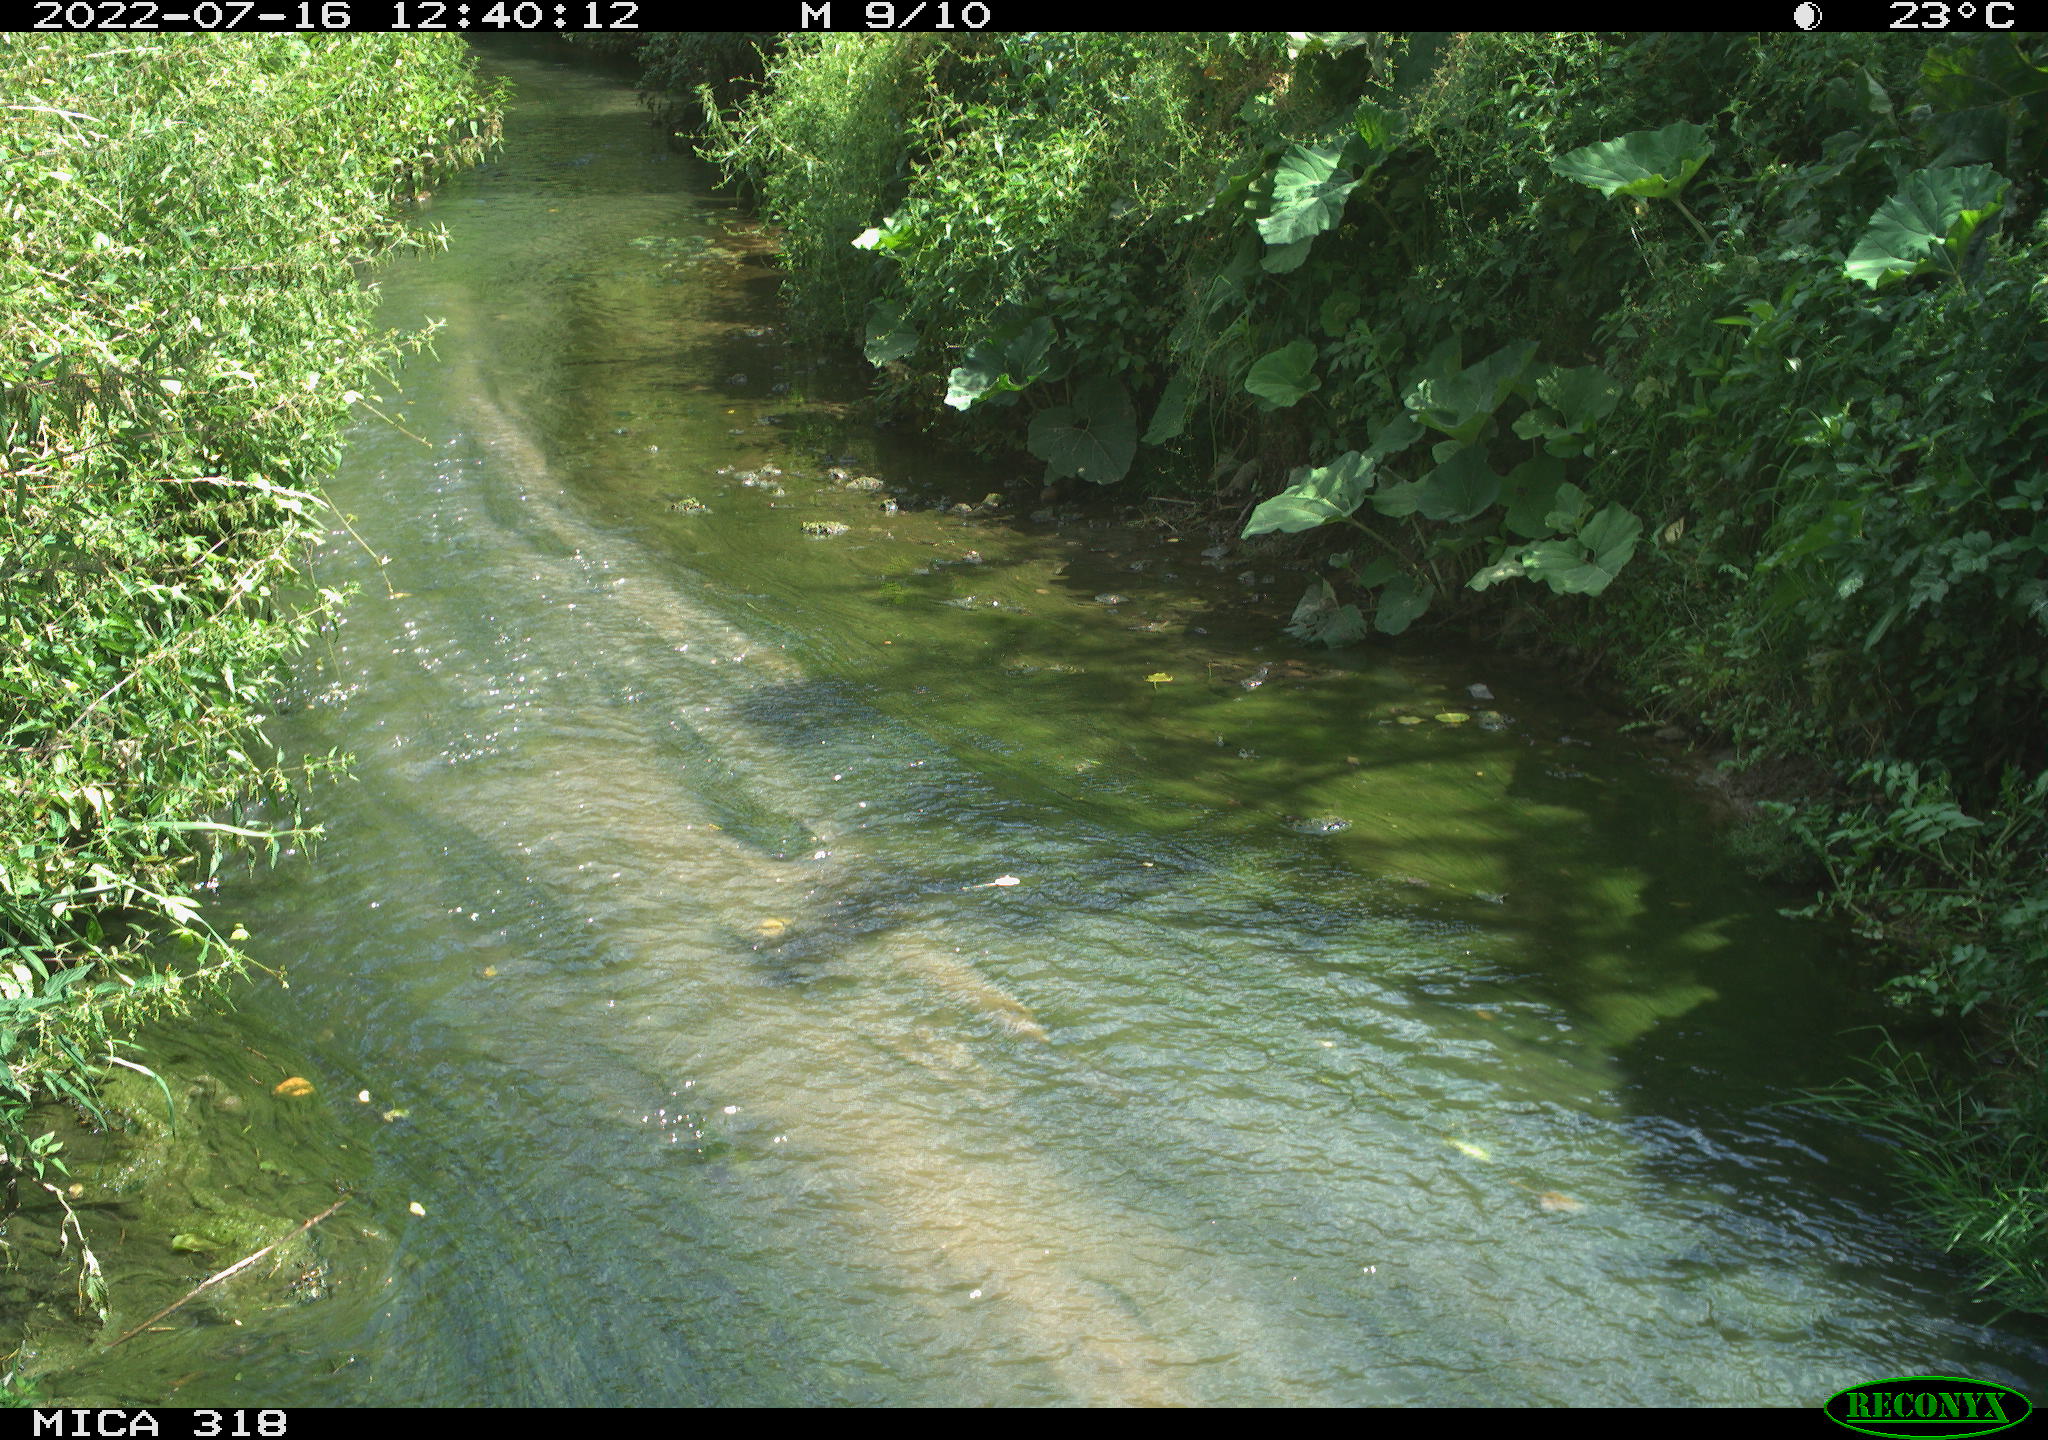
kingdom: Animalia
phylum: Chordata
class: Mammalia
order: Carnivora
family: Canidae
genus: Canis
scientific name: Canis lupus
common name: Gray wolf
